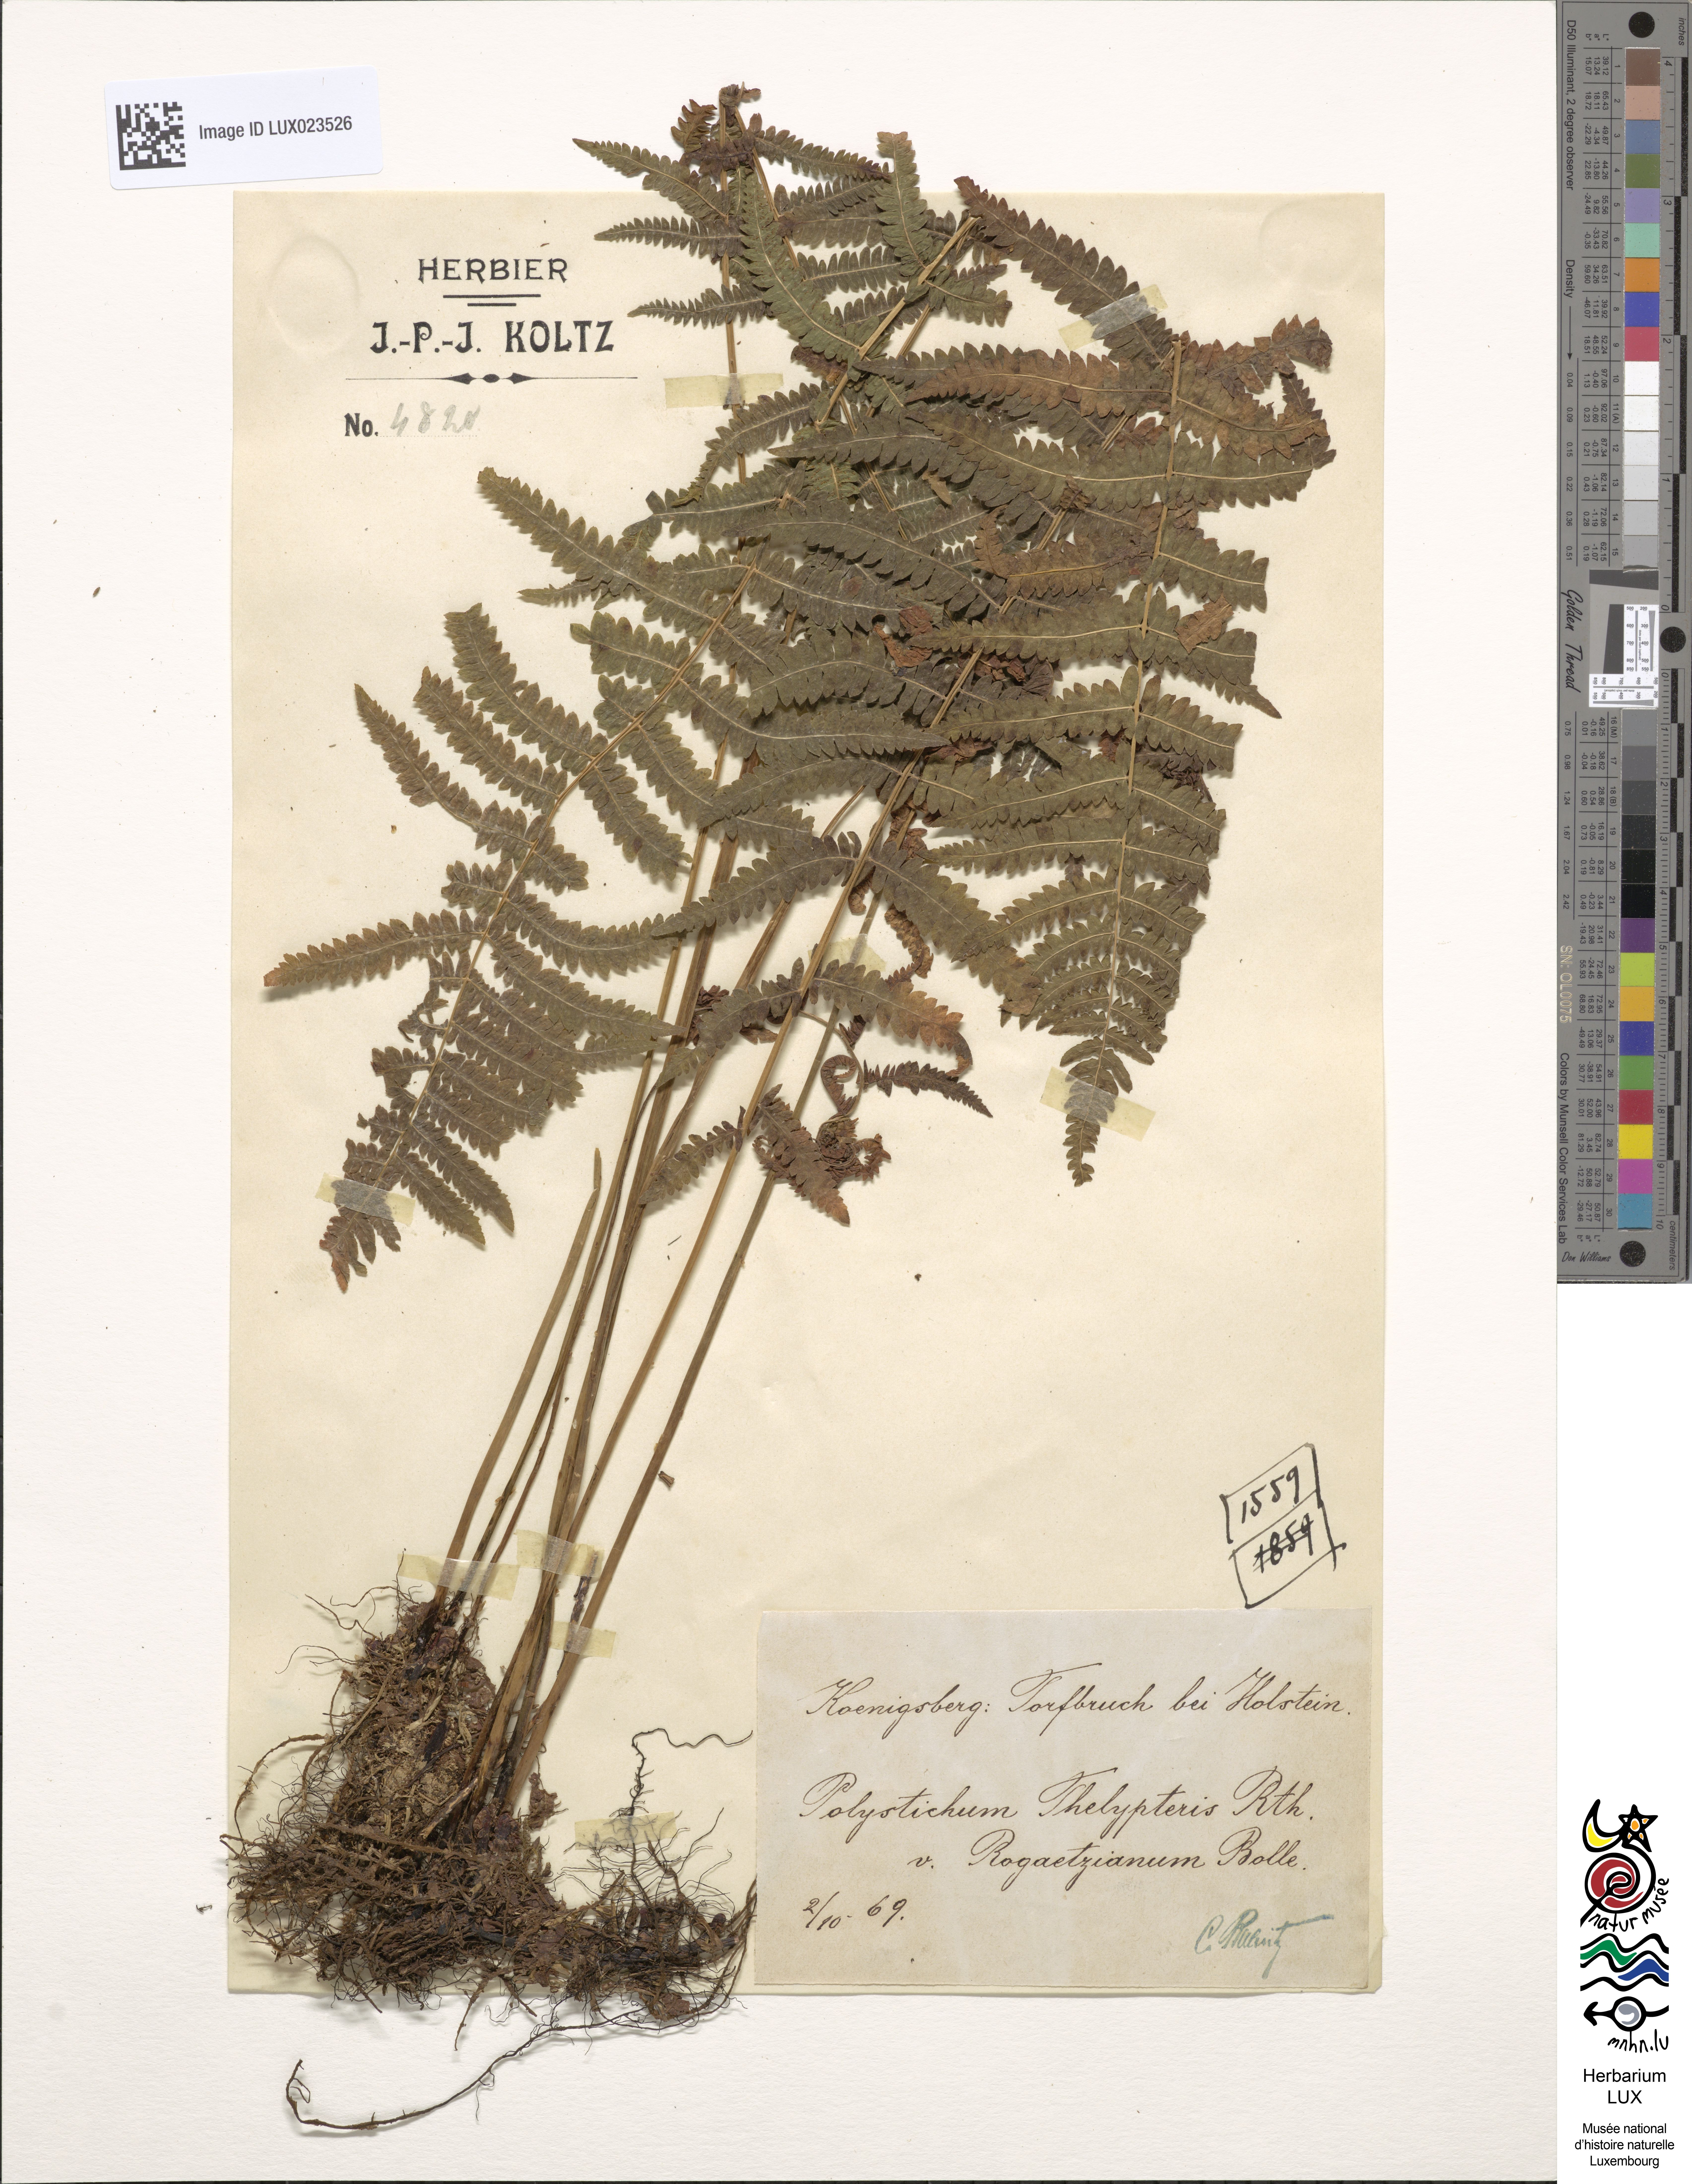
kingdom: Plantae
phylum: Tracheophyta
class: Polypodiopsida
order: Polypodiales
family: Thelypteridaceae
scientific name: Thelypteridaceae
